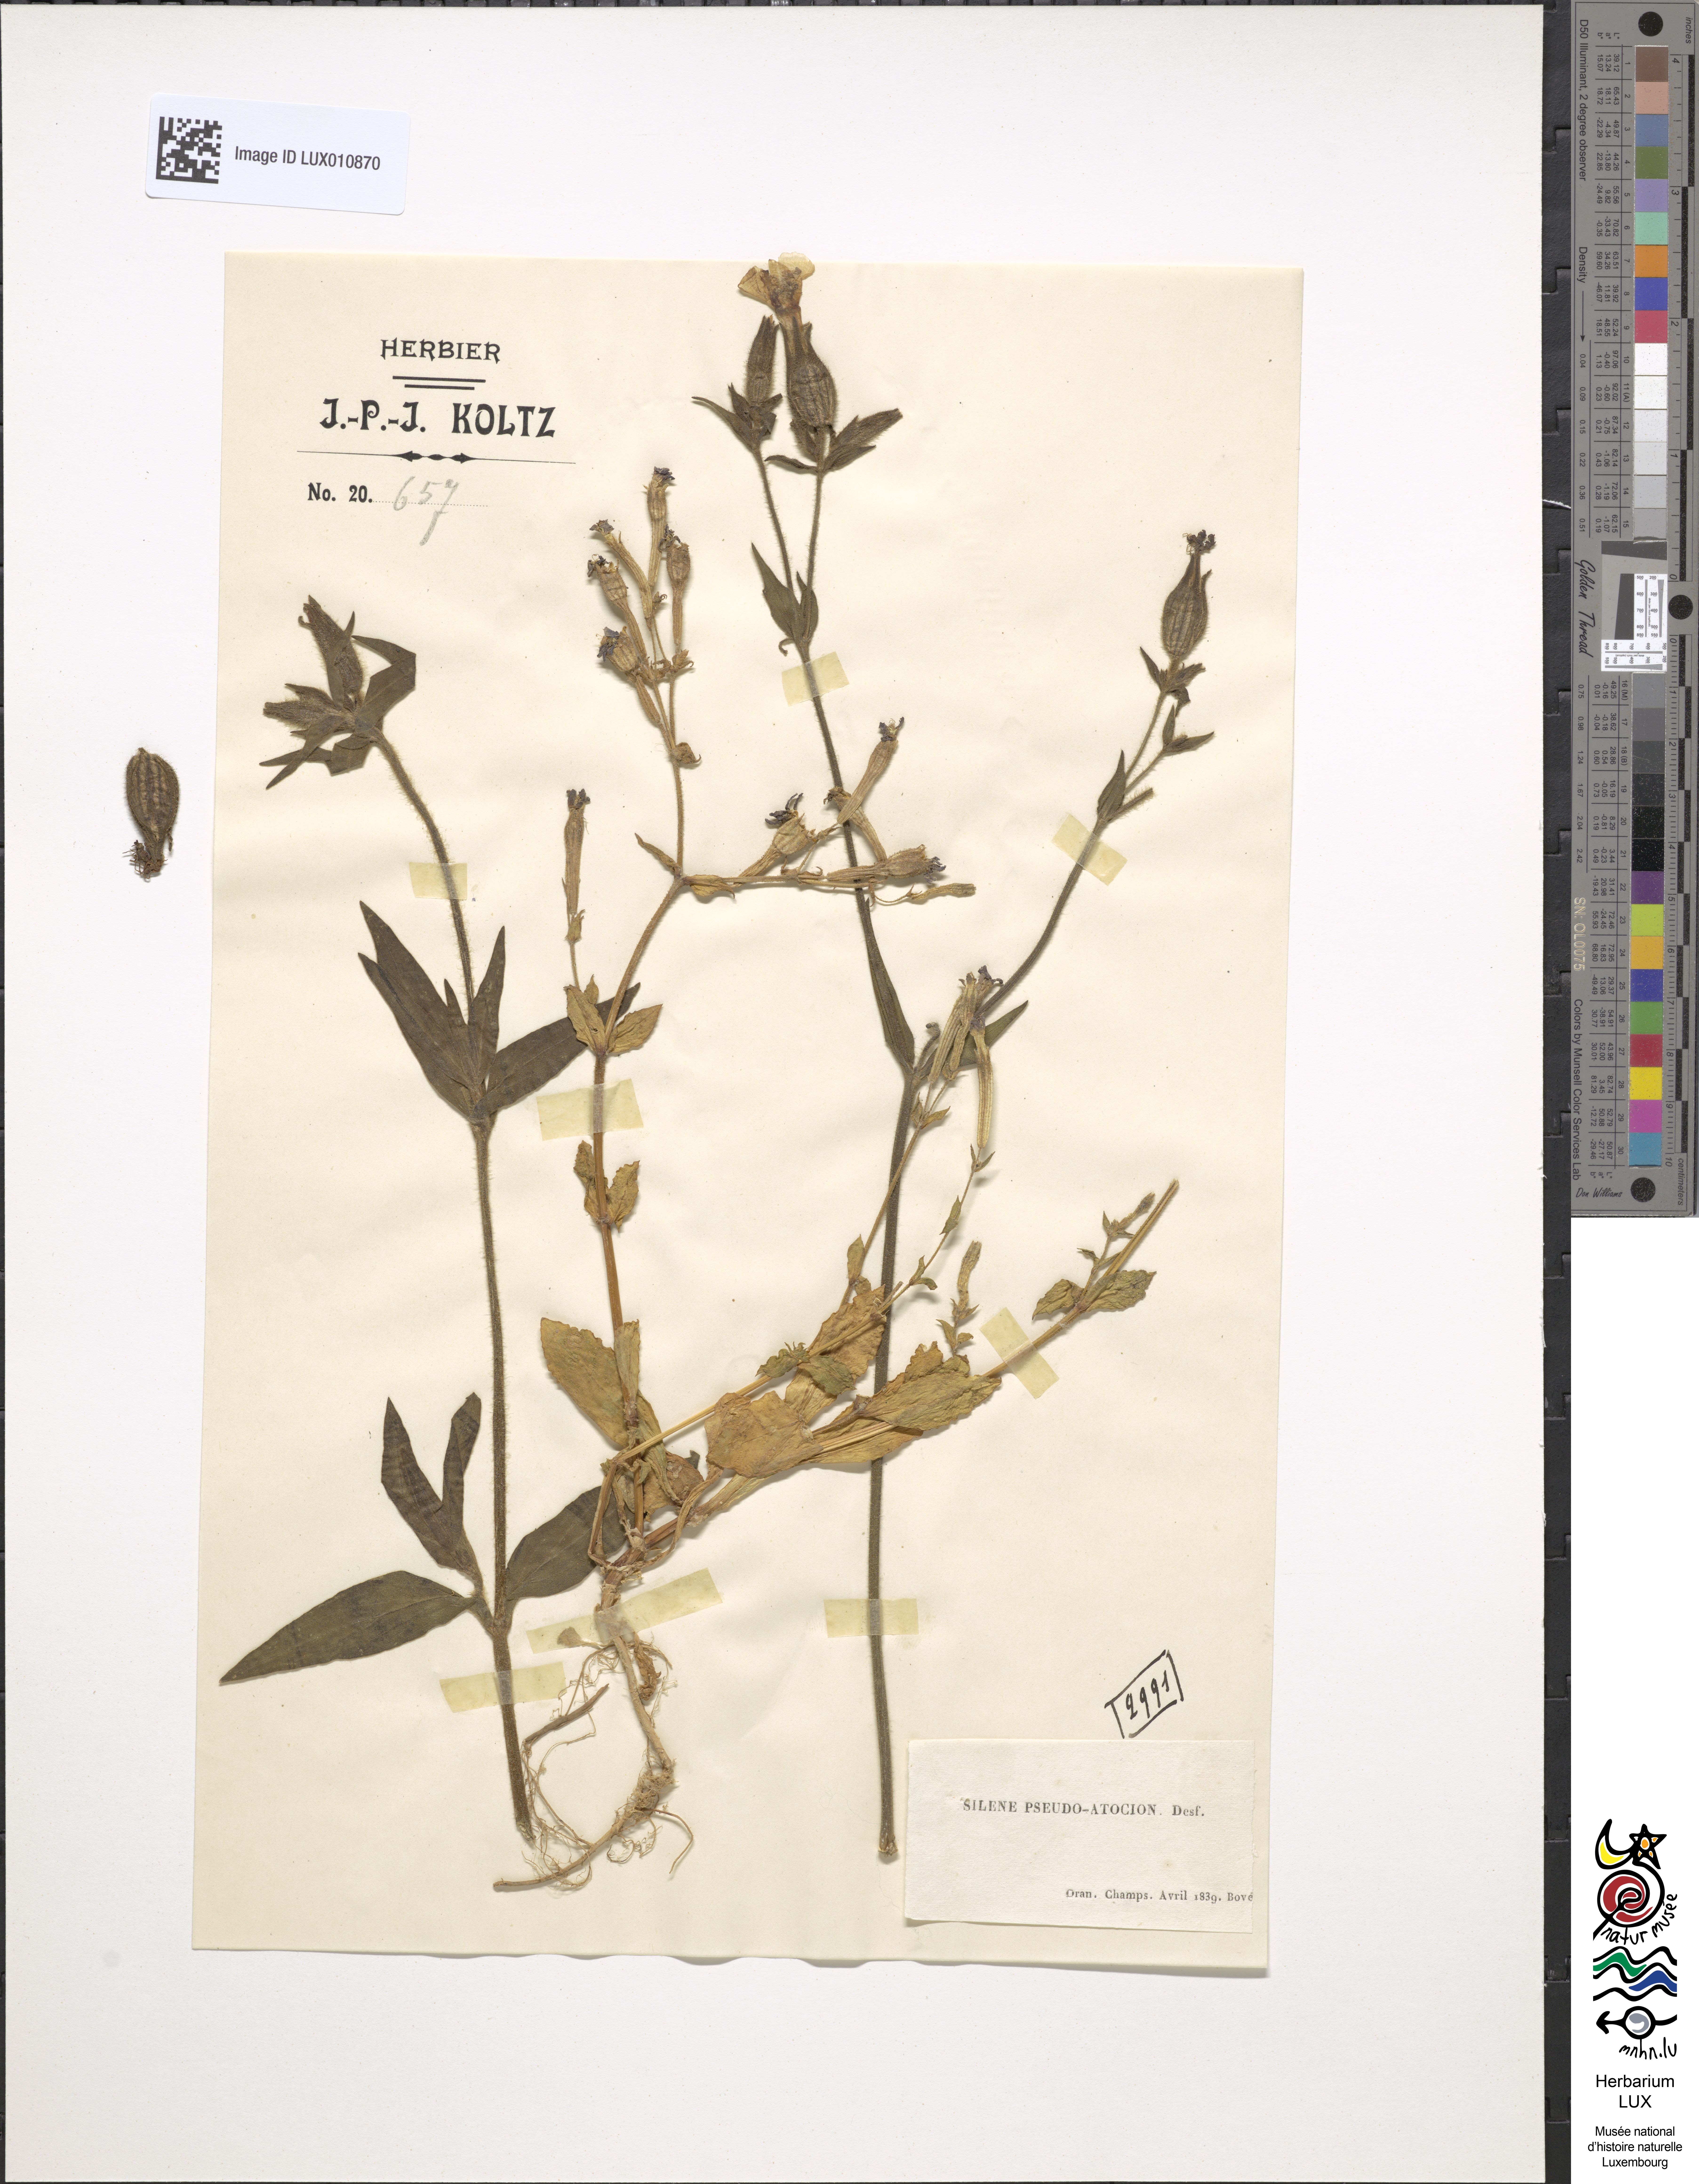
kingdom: Plantae
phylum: Tracheophyta
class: Magnoliopsida
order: Caryophyllales
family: Caryophyllaceae
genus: Silene
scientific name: Silene pseudoatocion
